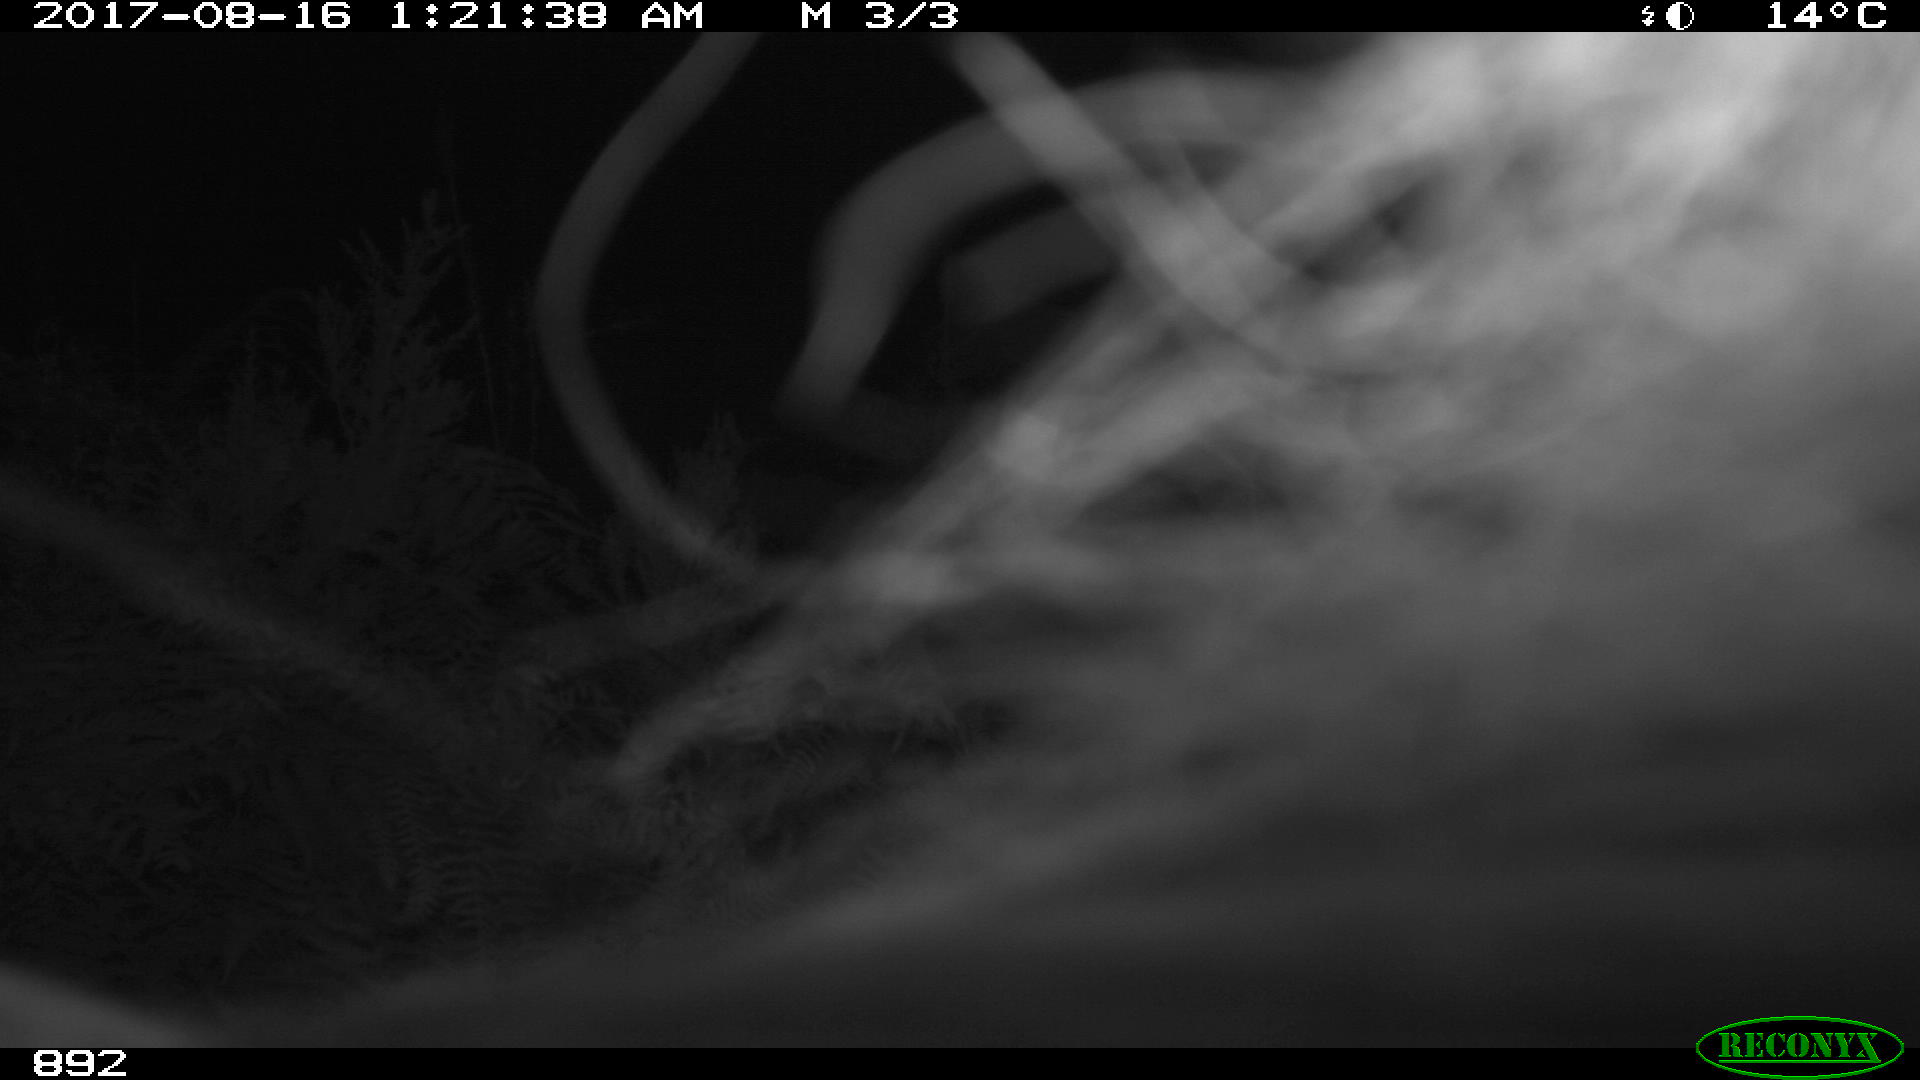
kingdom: Animalia
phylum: Chordata
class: Mammalia
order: Perissodactyla
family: Equidae
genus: Equus
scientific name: Equus caballus
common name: Horse
